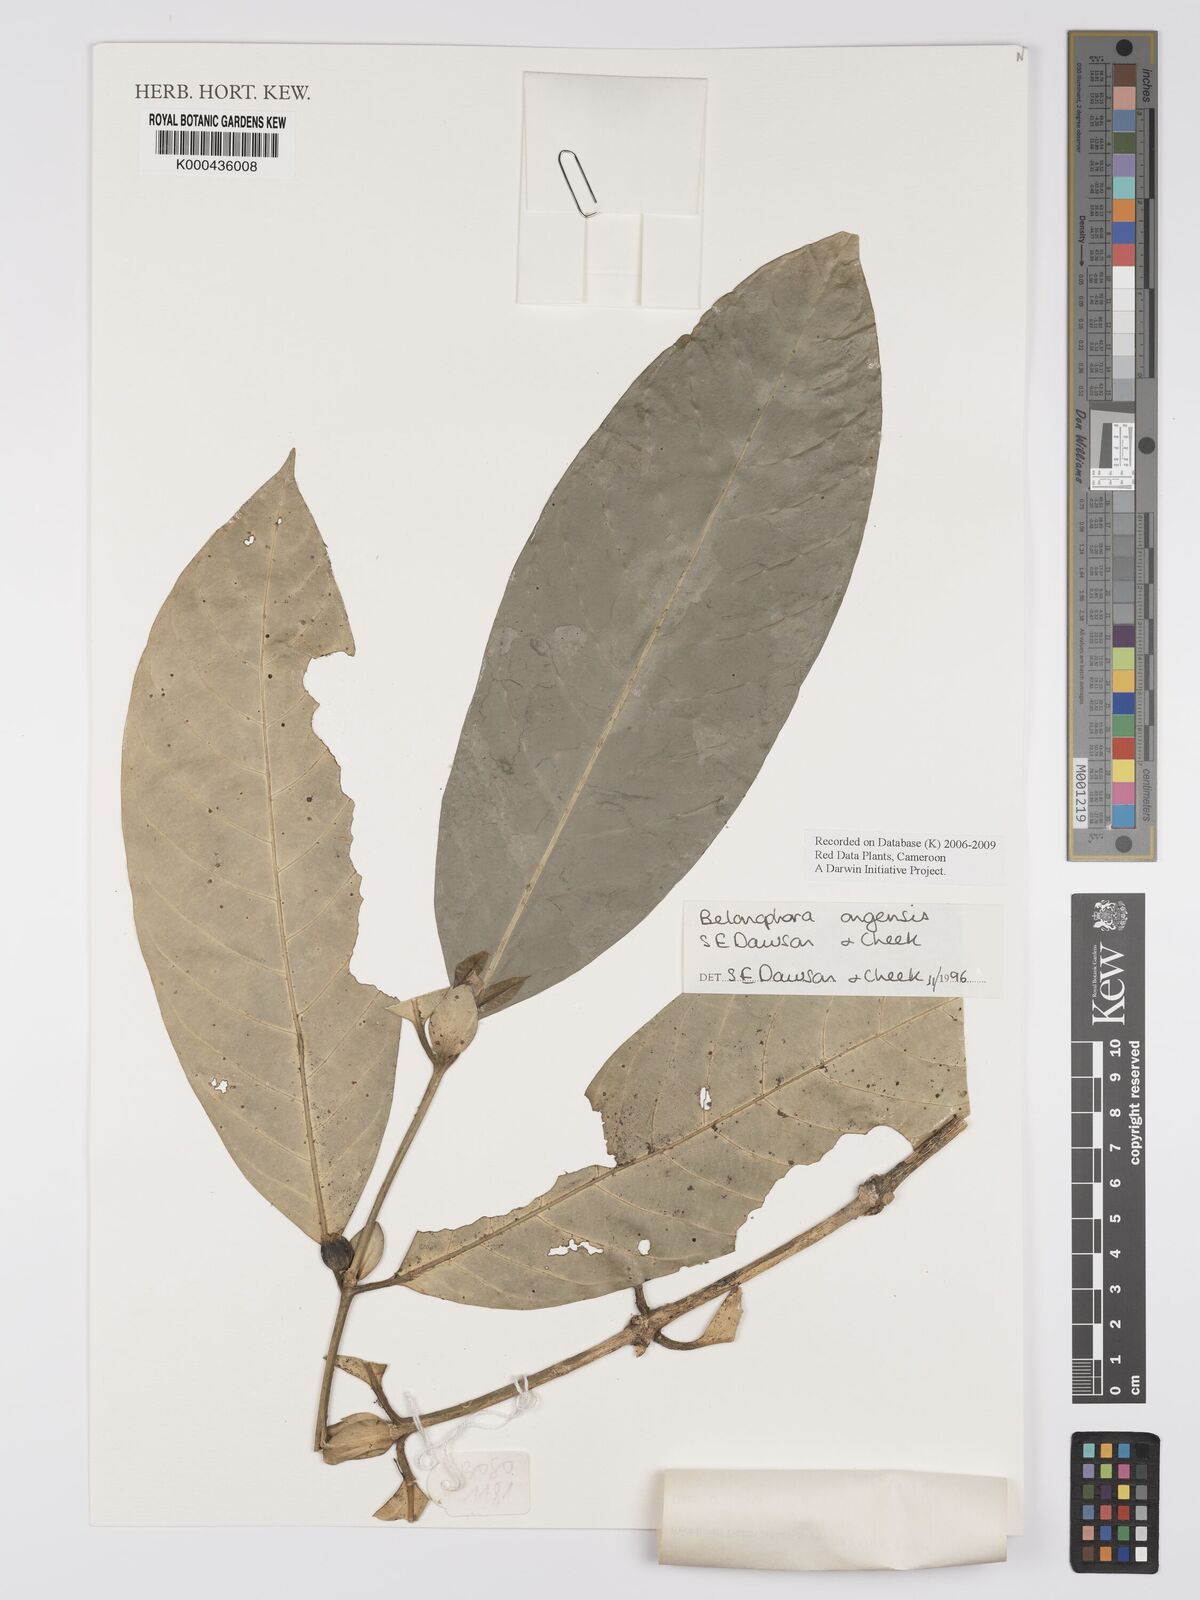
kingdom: Plantae
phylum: Tracheophyta
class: Magnoliopsida
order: Gentianales
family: Rubiaceae
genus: Belonophora
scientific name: Belonophora ongensis
